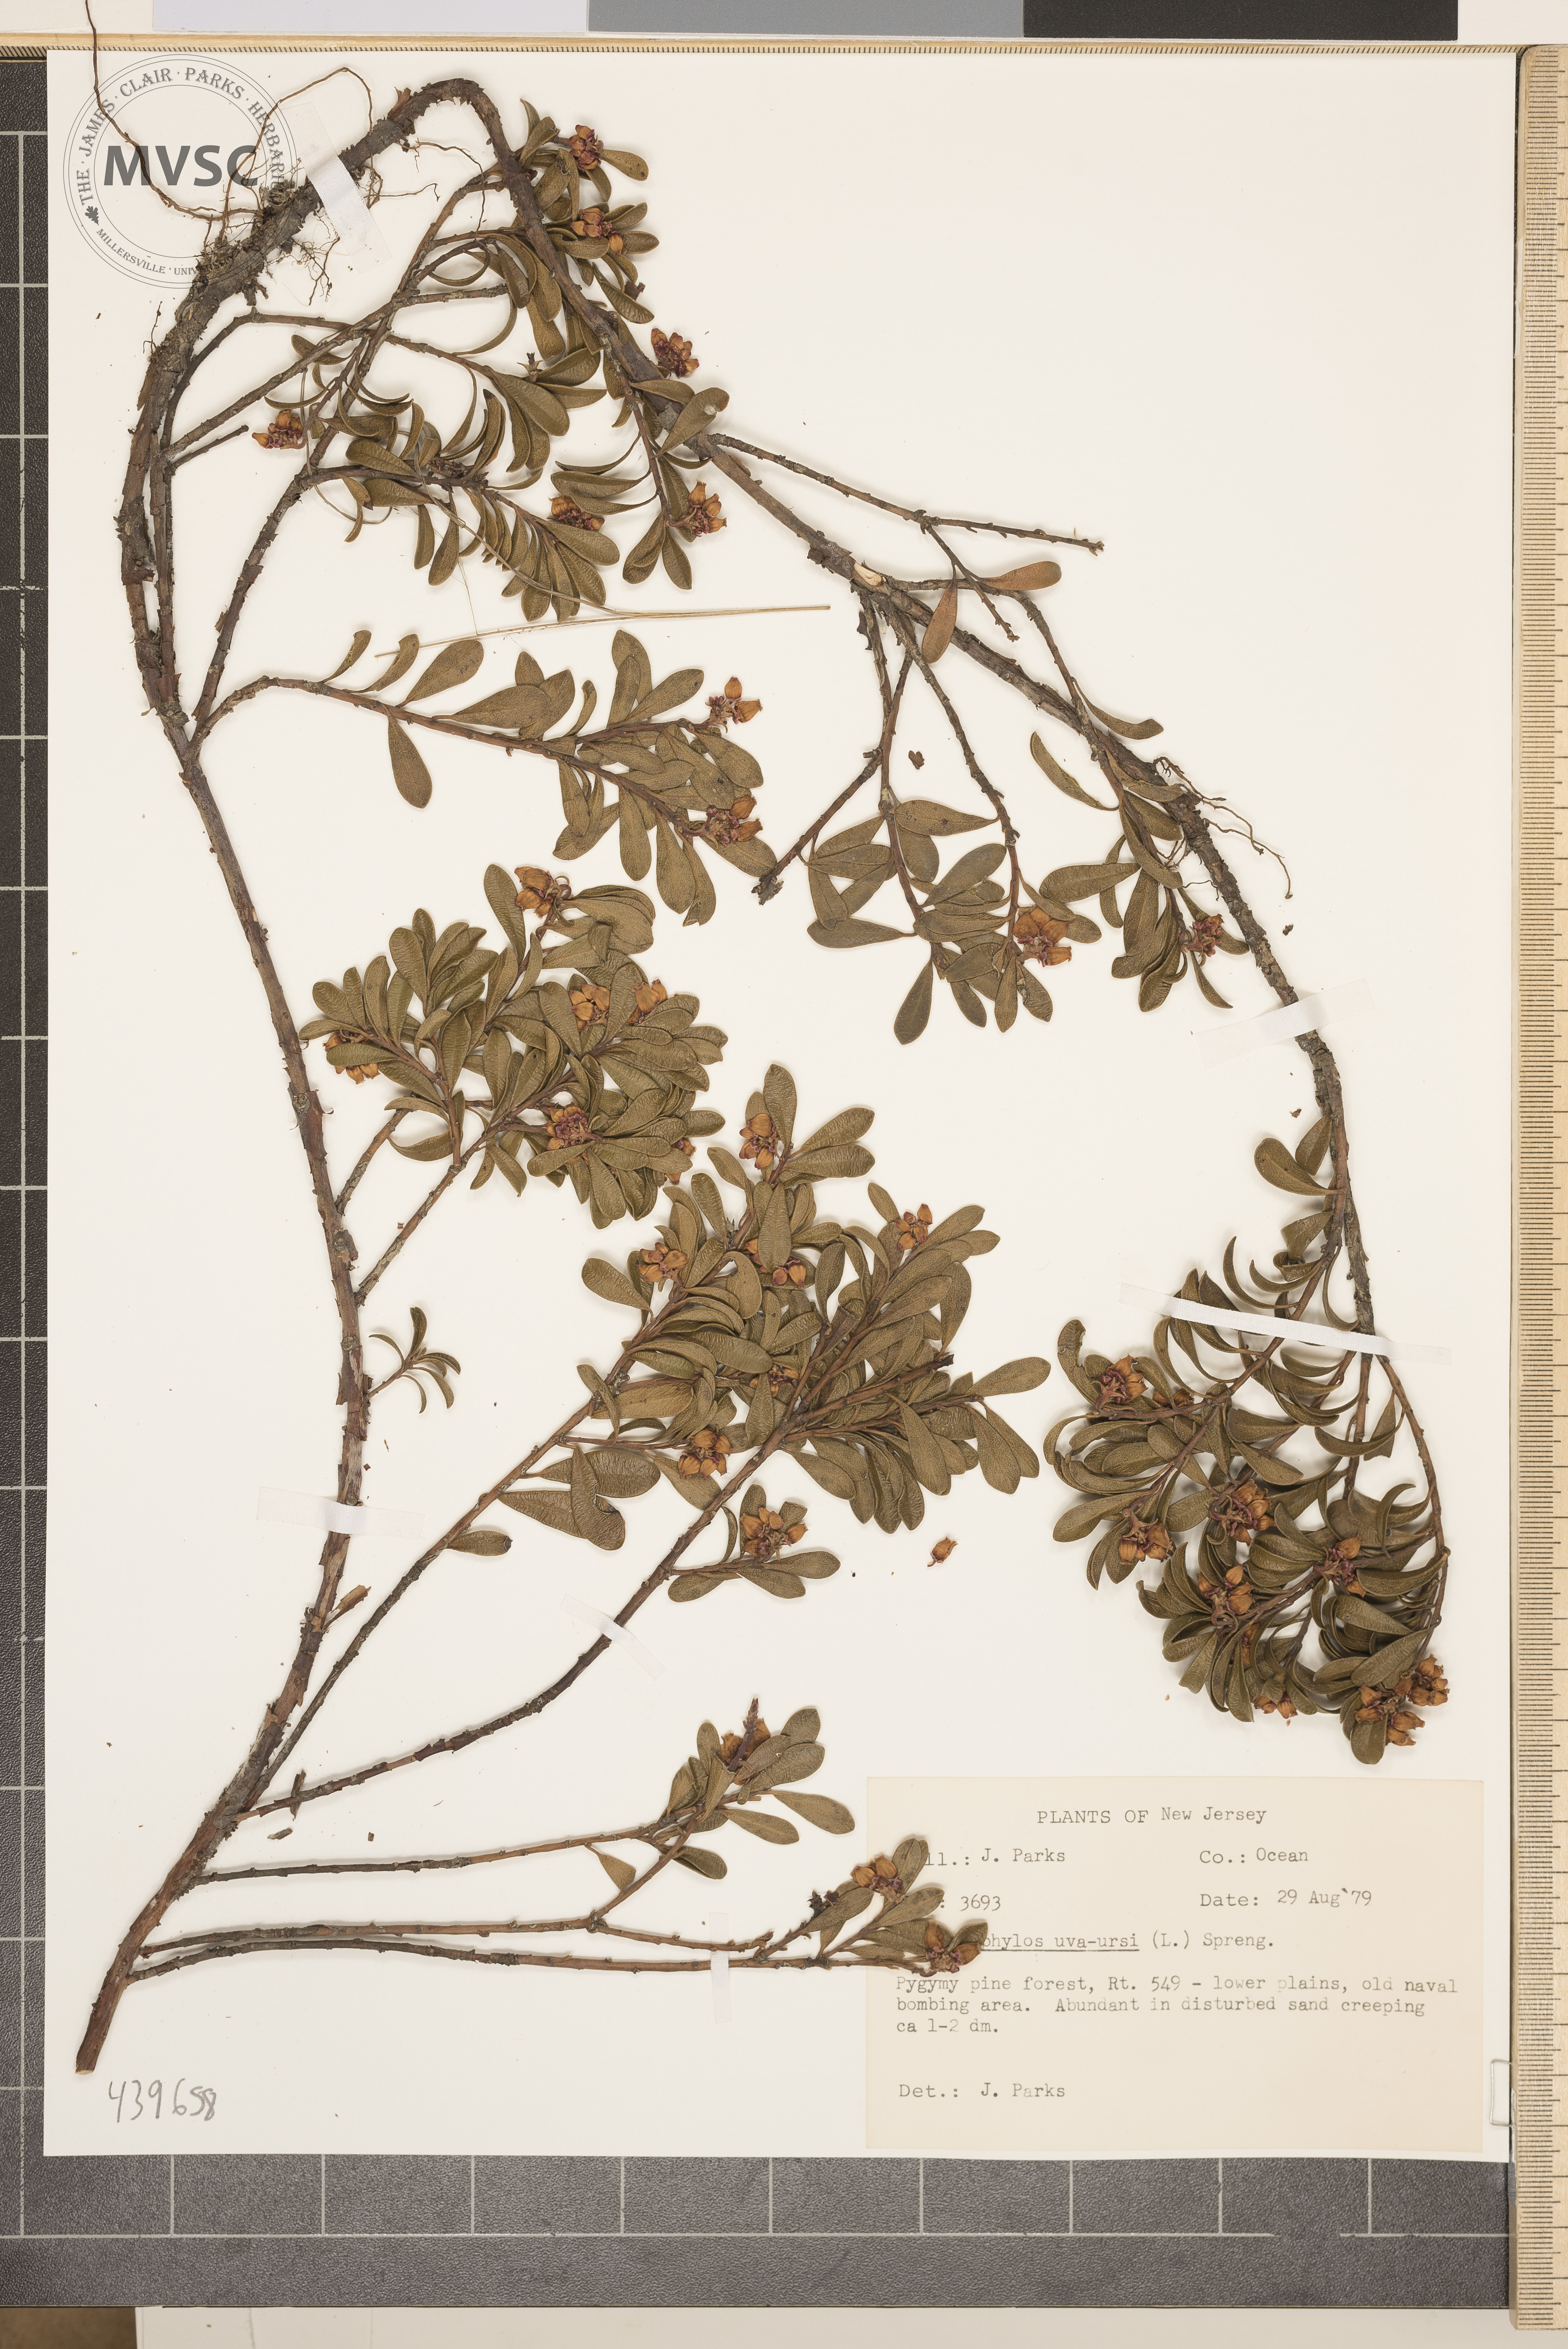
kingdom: Plantae
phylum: Tracheophyta
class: Magnoliopsida
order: Ericales
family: Ericaceae
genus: Arctostaphylos
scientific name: Arctostaphylos uva-ursi
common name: Bearberry
